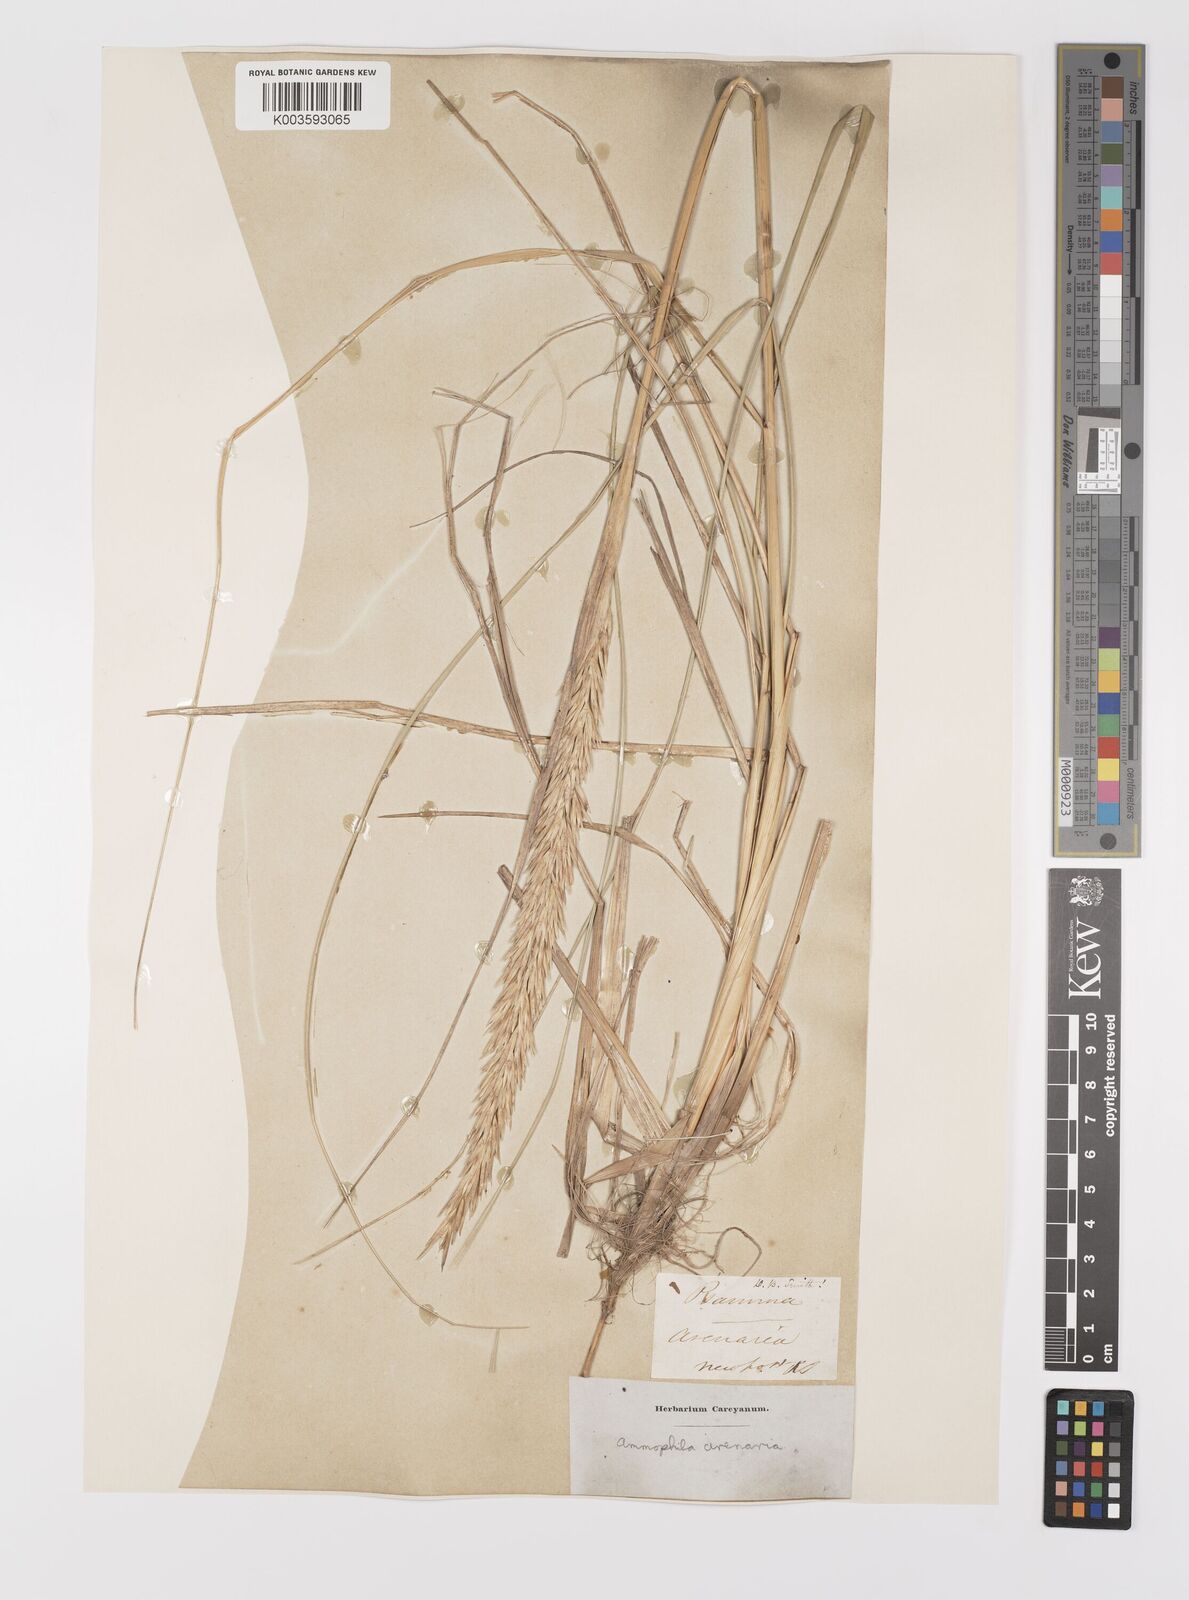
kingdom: Plantae
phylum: Tracheophyta
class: Liliopsida
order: Poales
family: Poaceae
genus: Calamagrostis
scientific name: Calamagrostis breviligulata
